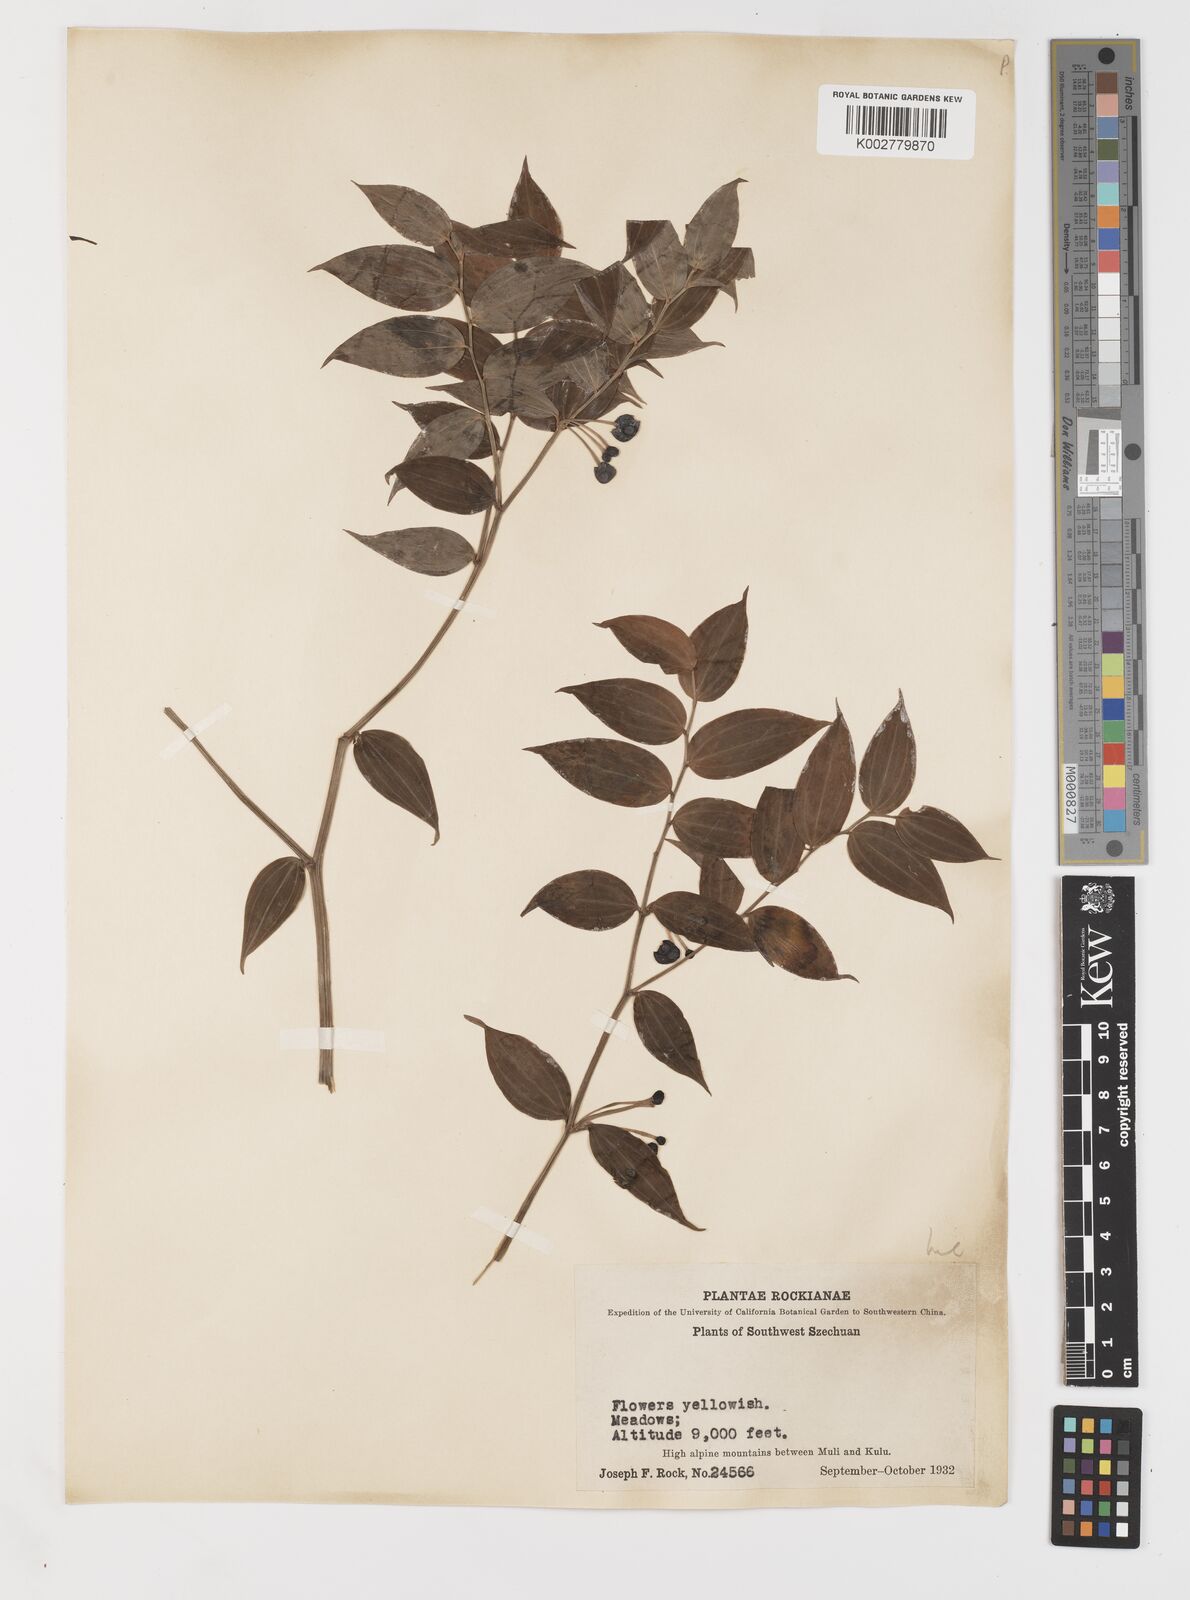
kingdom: Plantae
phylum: Tracheophyta
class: Liliopsida
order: Liliales
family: Colchicaceae
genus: Disporum
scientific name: Disporum
